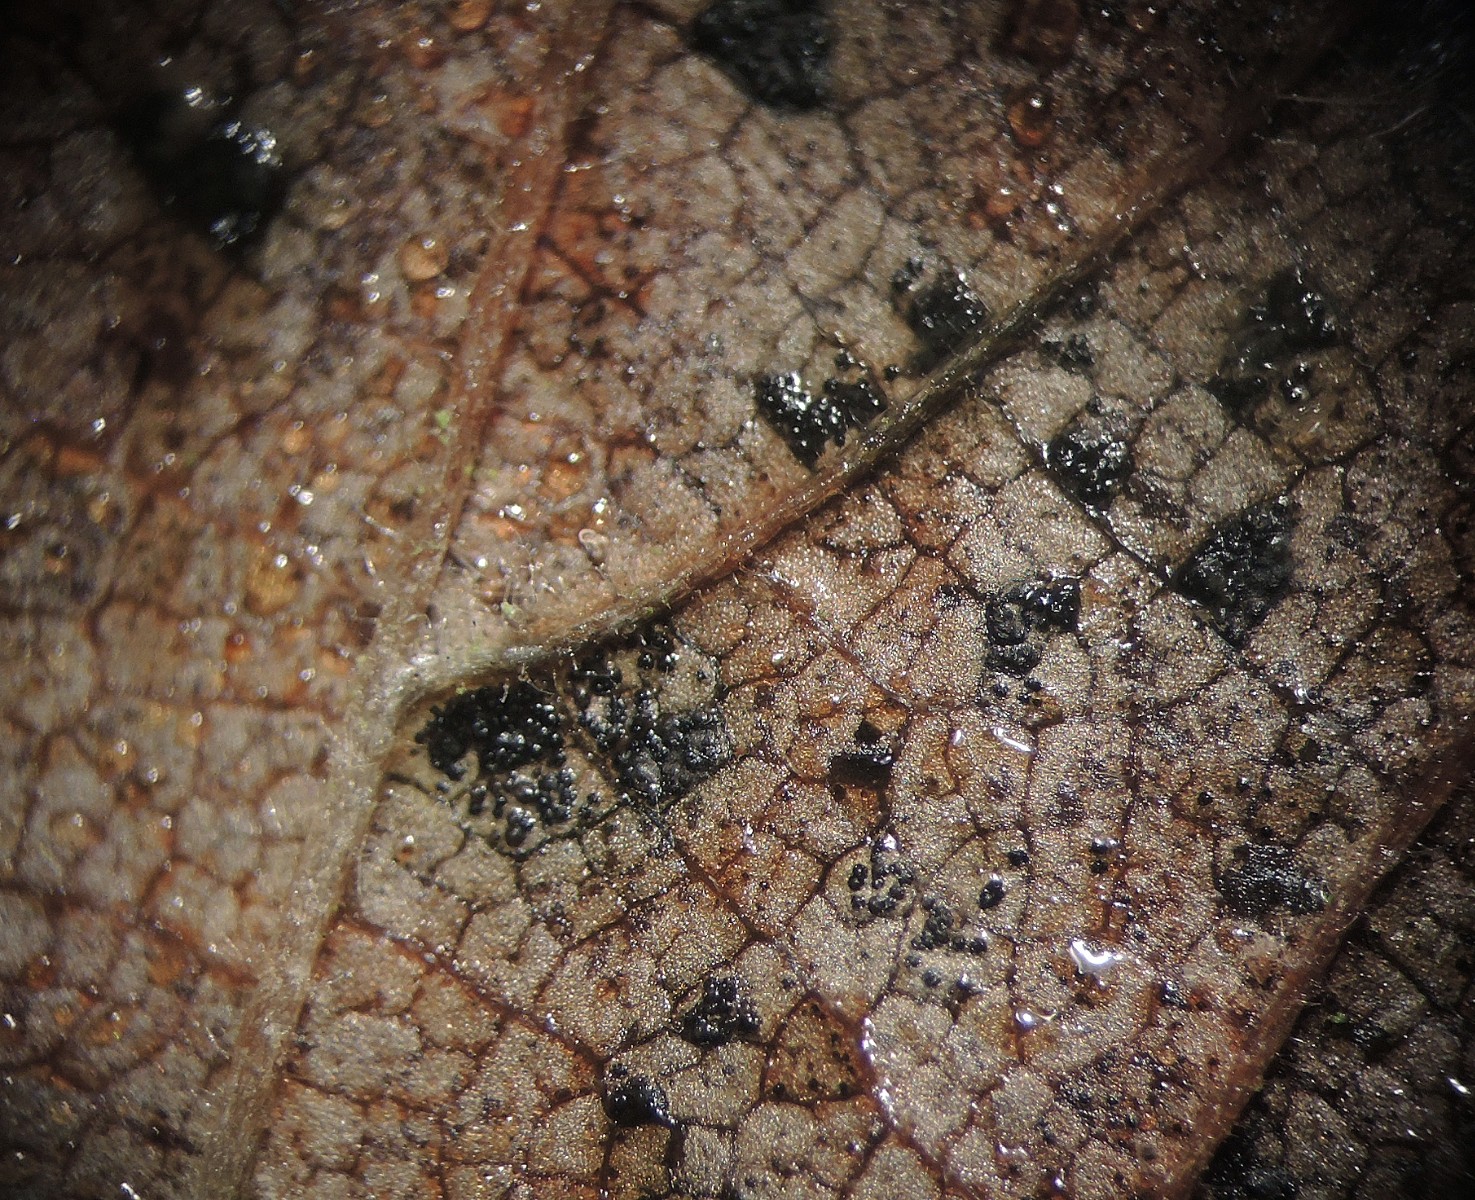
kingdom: Fungi
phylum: Ascomycota
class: Sordariomycetes
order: Diaporthales
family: Sydowiellaceae
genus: Stegophora
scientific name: Stegophora ulmea
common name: Black spot of elm
